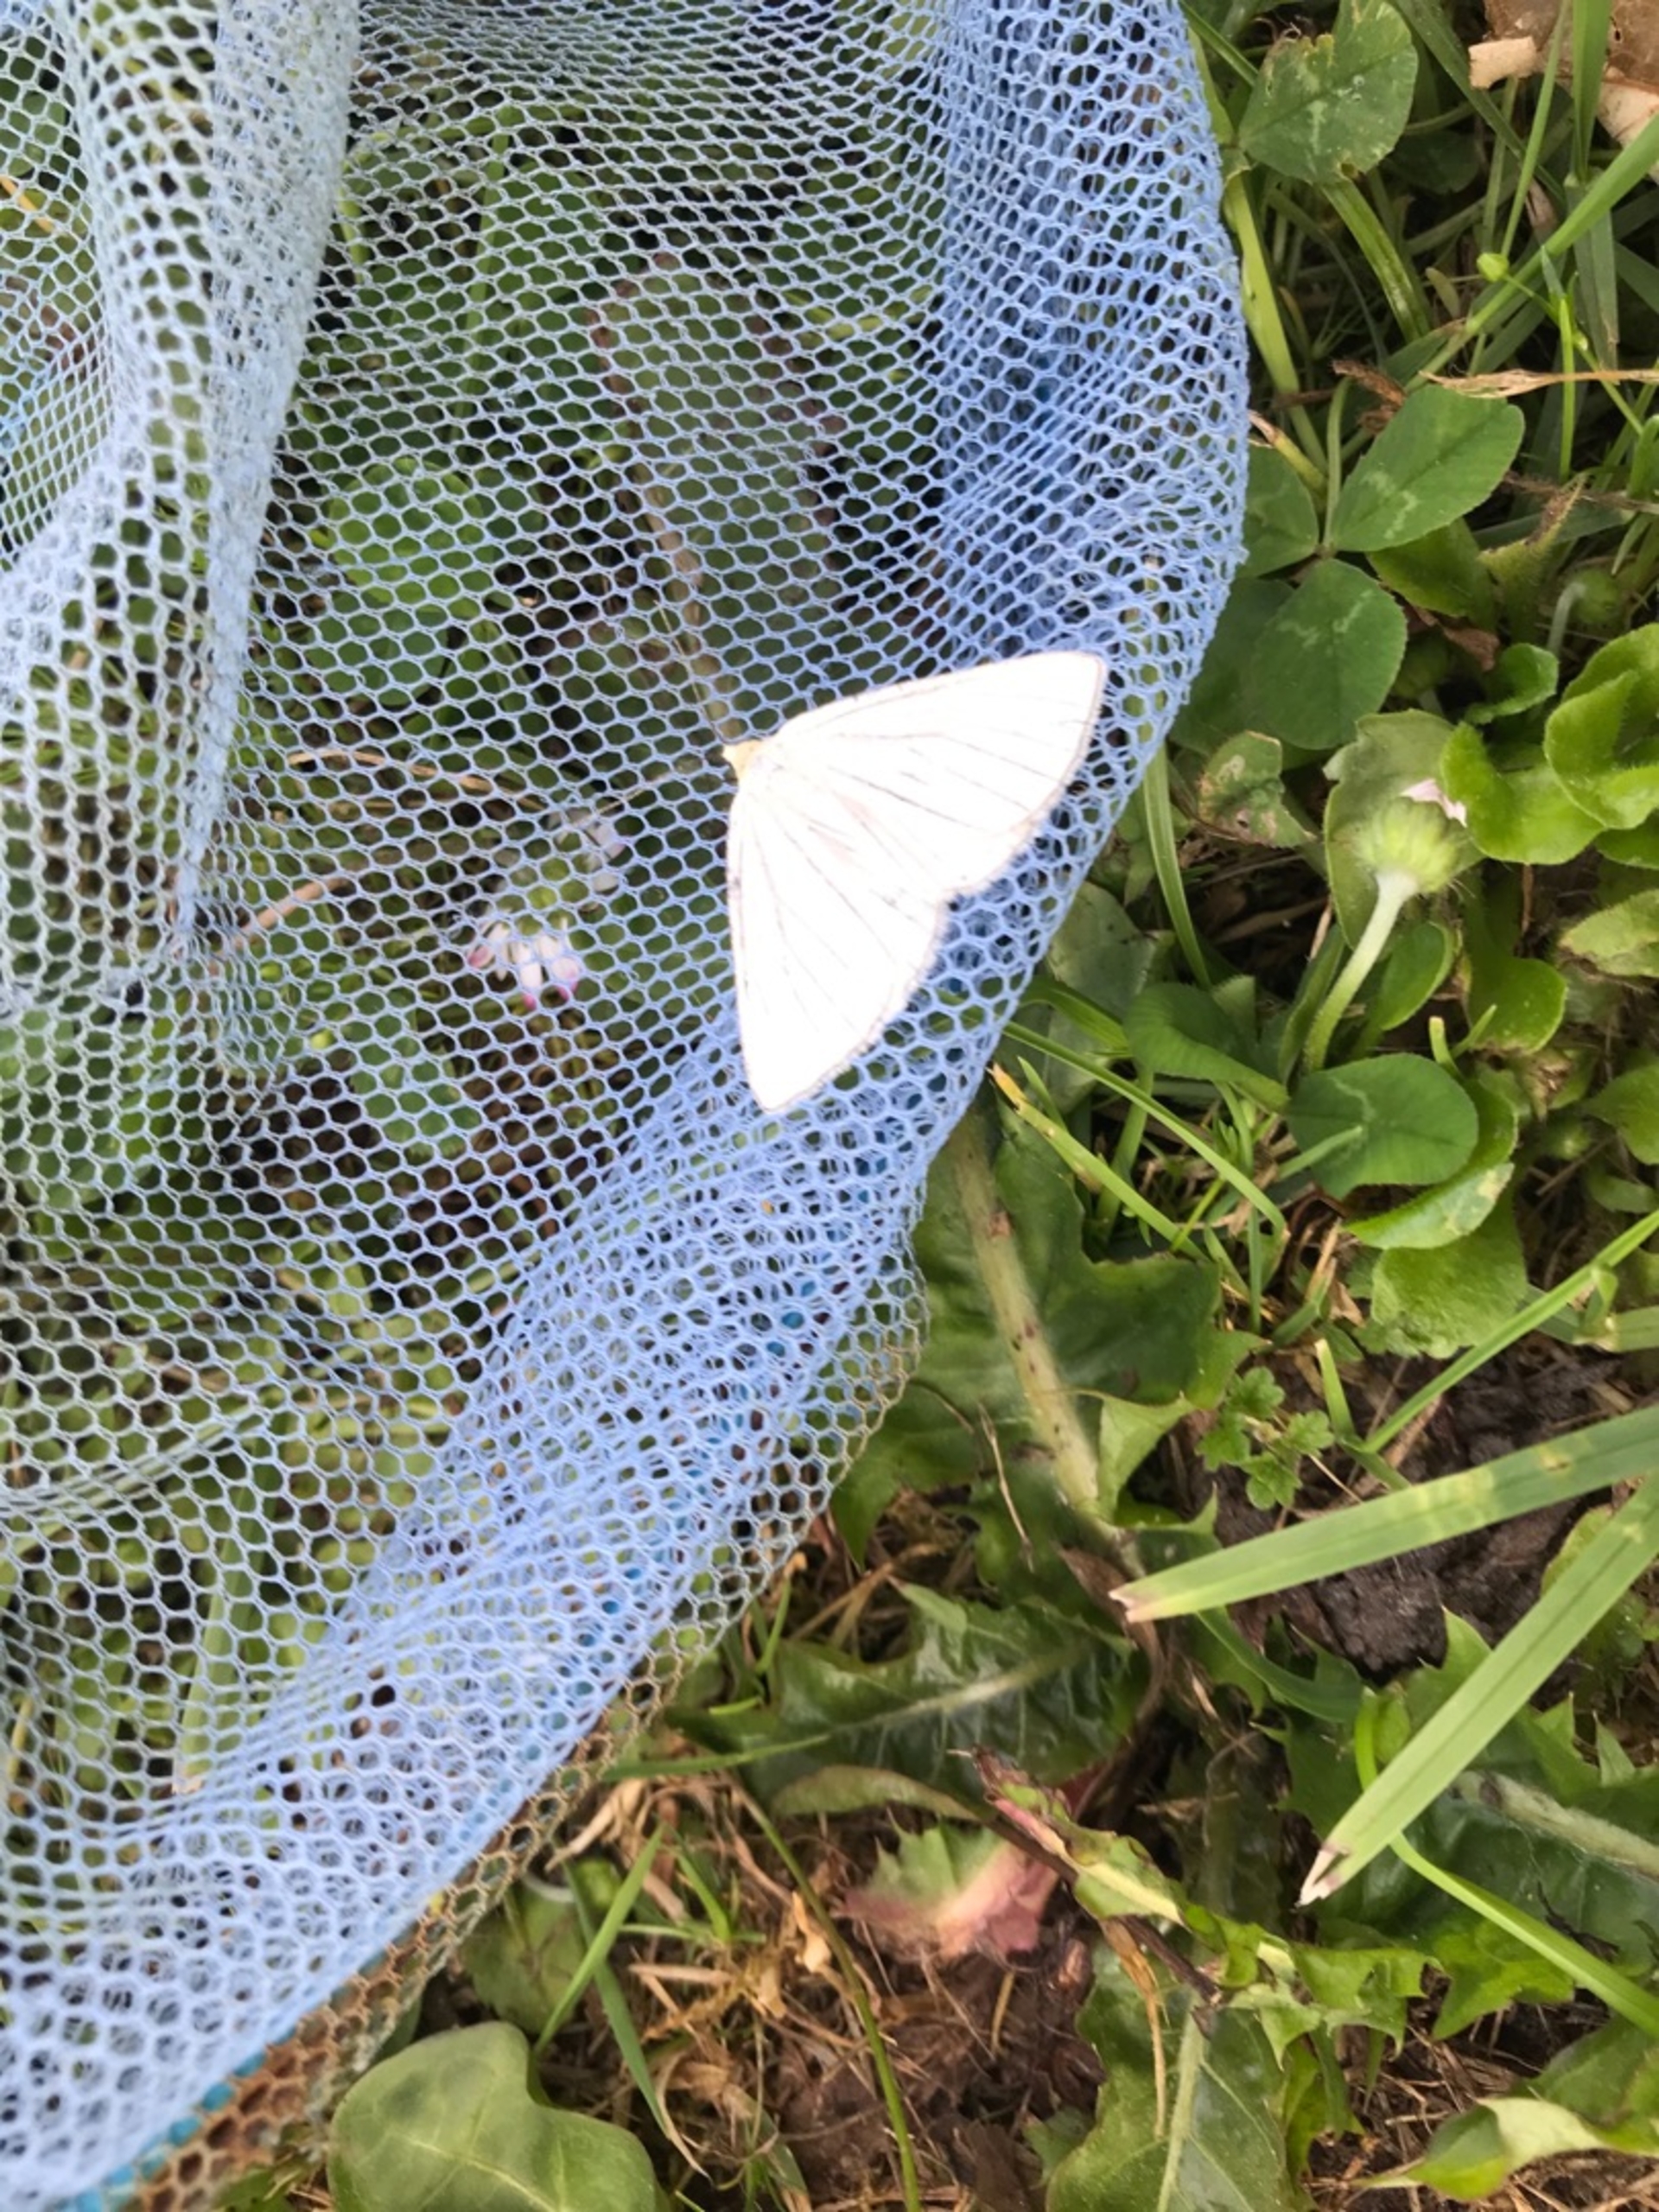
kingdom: Animalia
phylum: Arthropoda
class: Insecta
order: Lepidoptera
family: Geometridae
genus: Siona
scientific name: Siona lineata
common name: Hvidvingemåler
